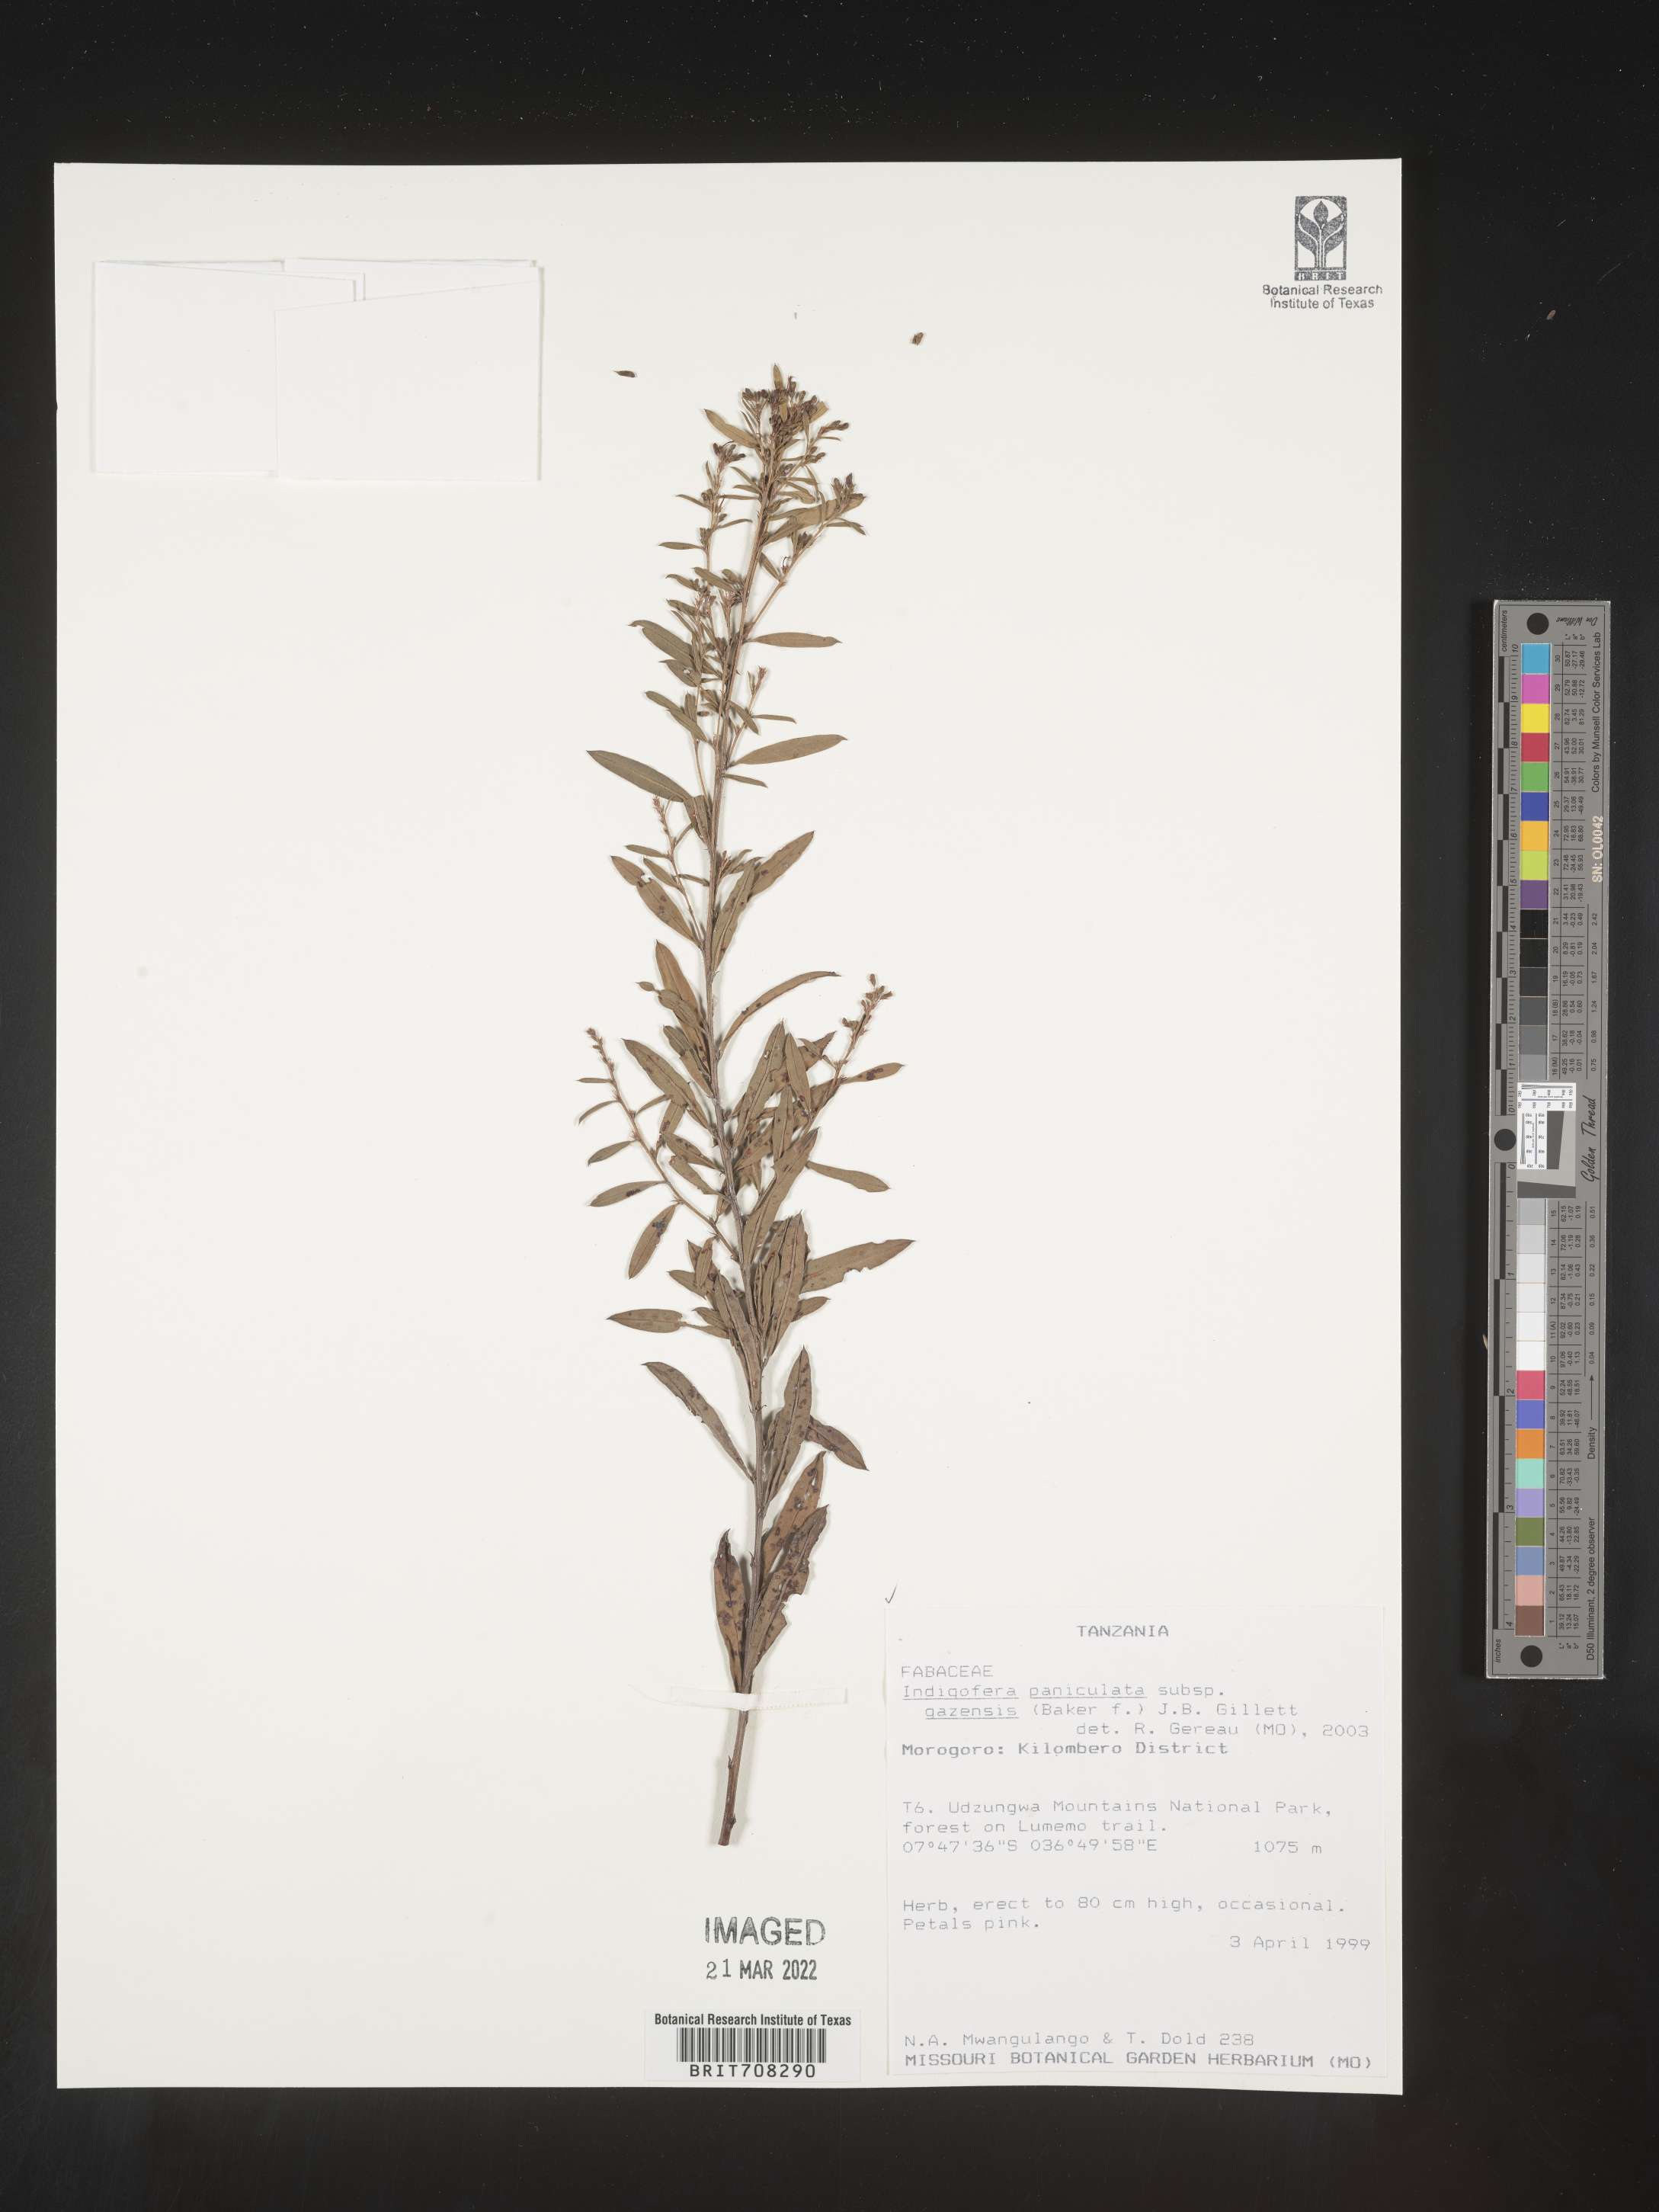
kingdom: Plantae
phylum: Tracheophyta
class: Magnoliopsida
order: Fabales
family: Fabaceae
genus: Indigofera
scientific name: Indigofera
